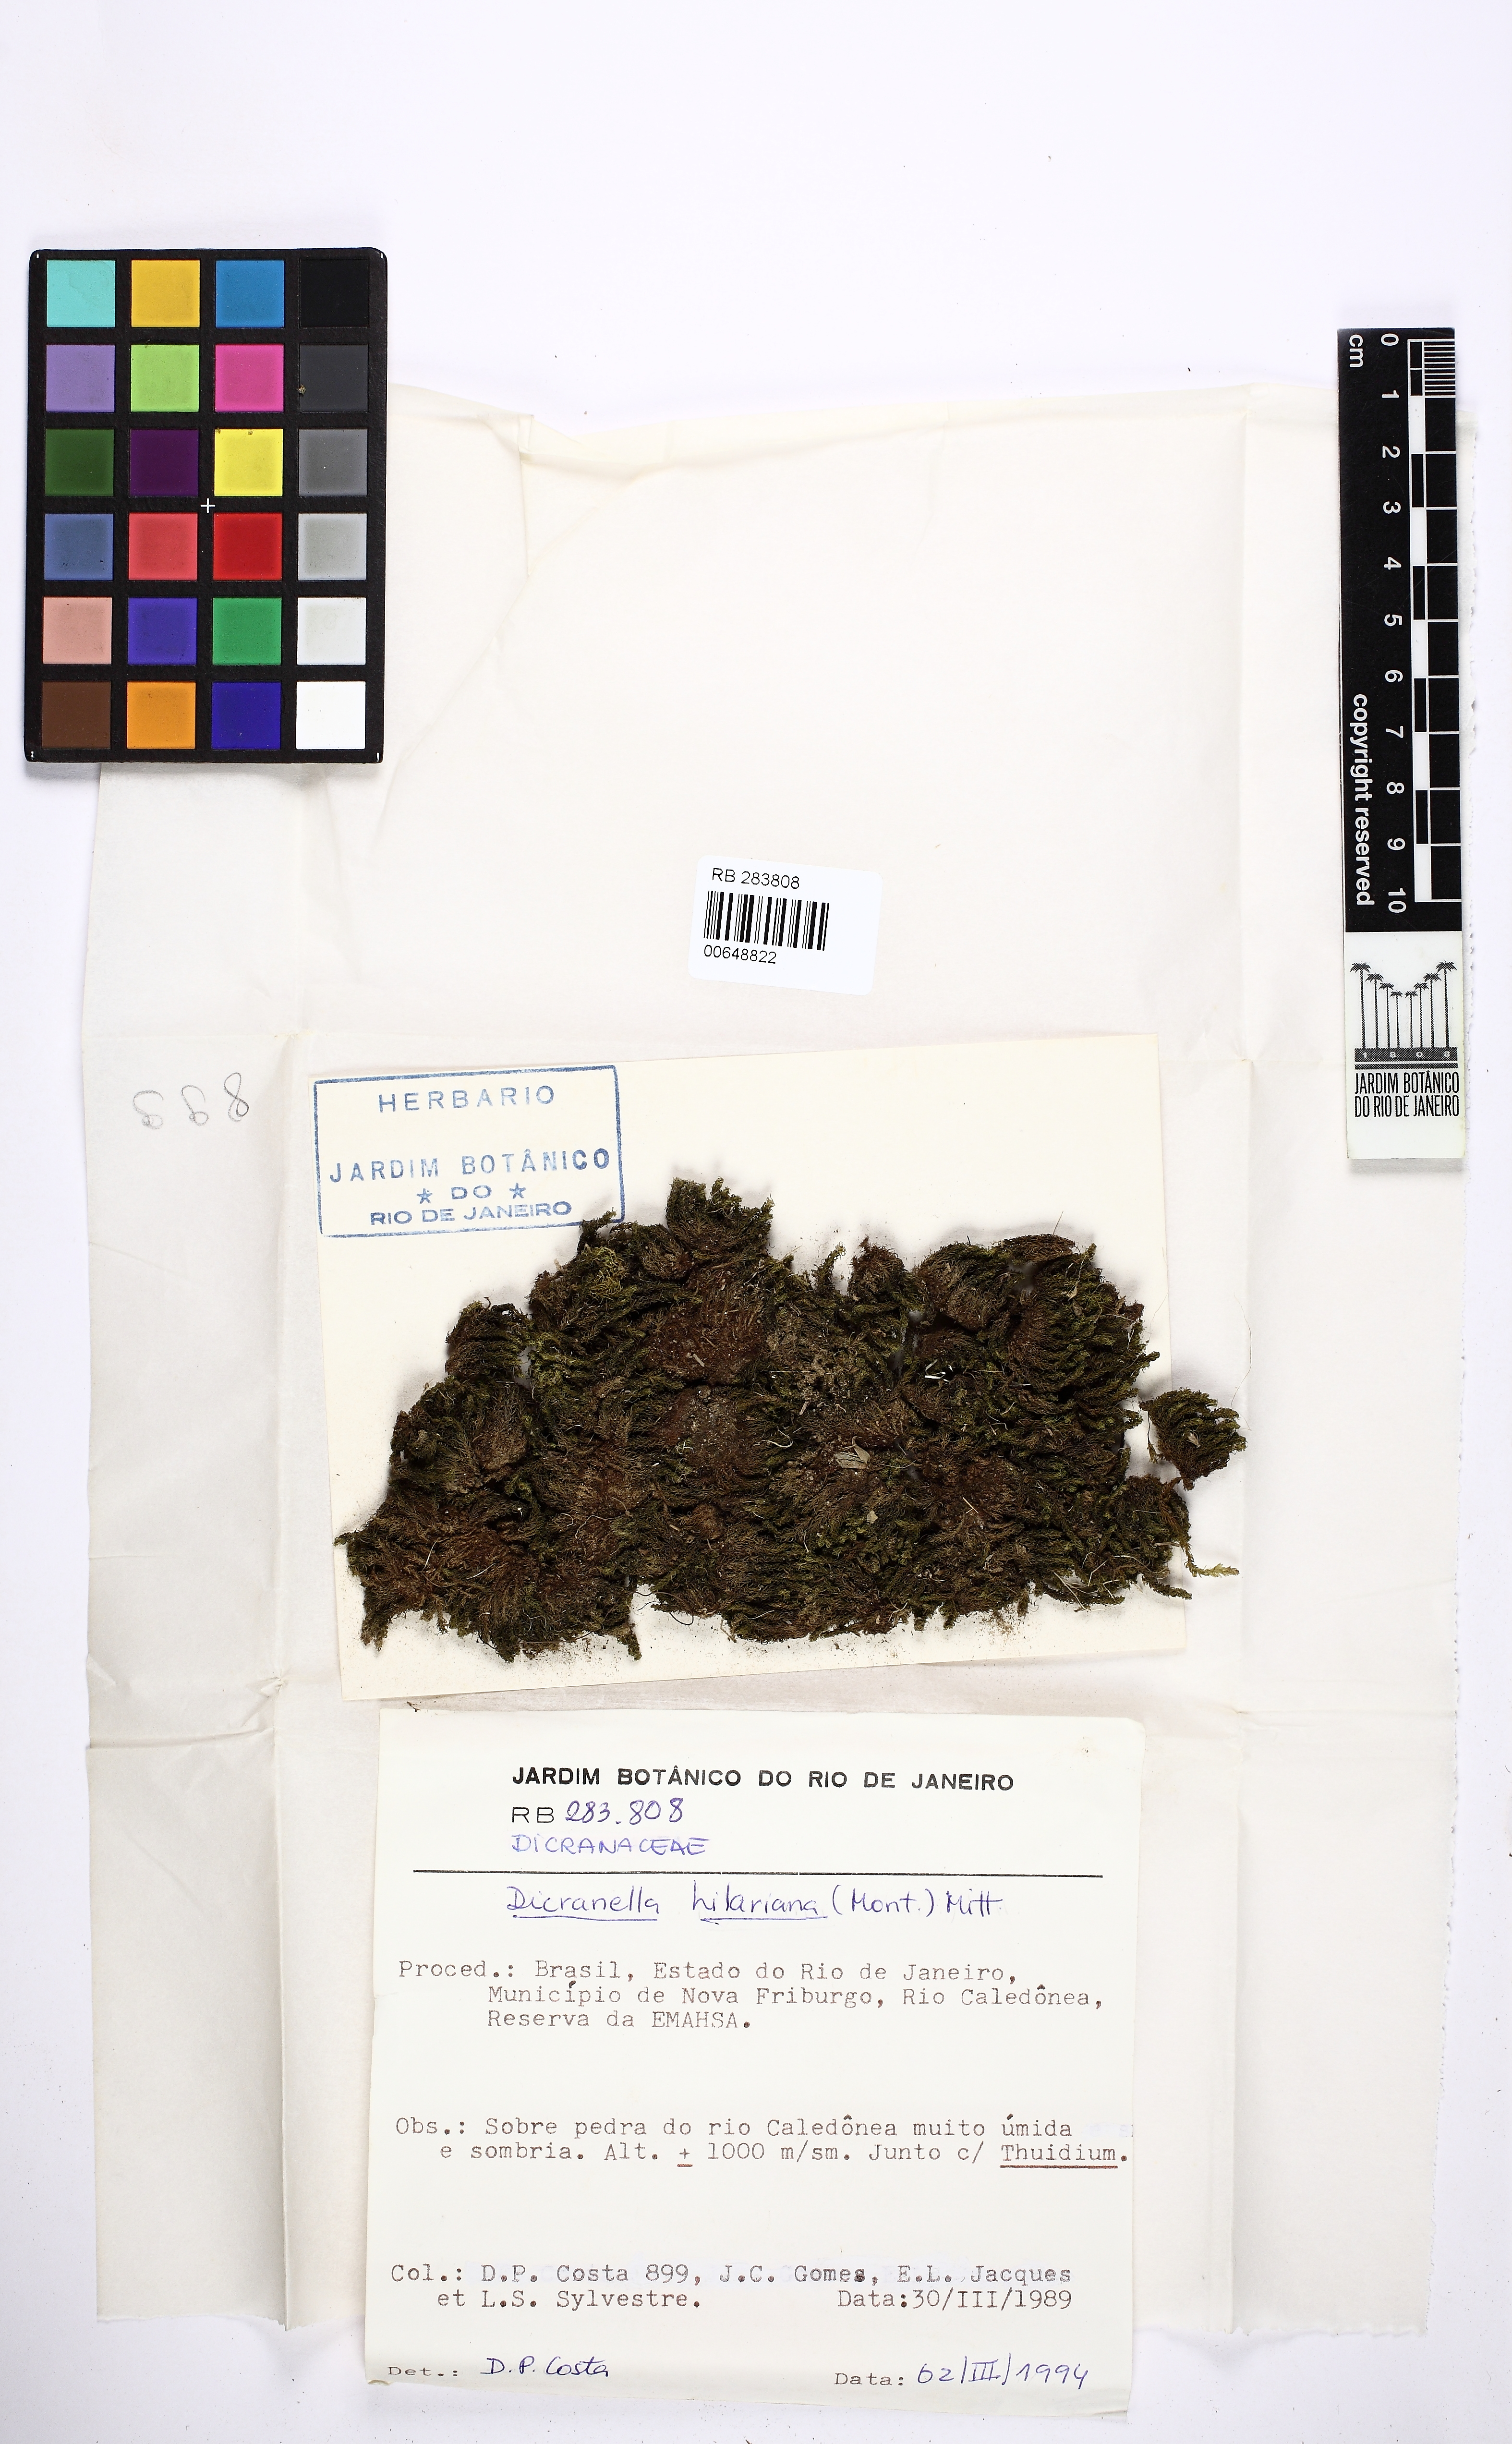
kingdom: Plantae
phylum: Bryophyta
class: Bryopsida
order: Dicranales
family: Dicranellaceae
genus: Dicranella
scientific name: Dicranella hilariana
